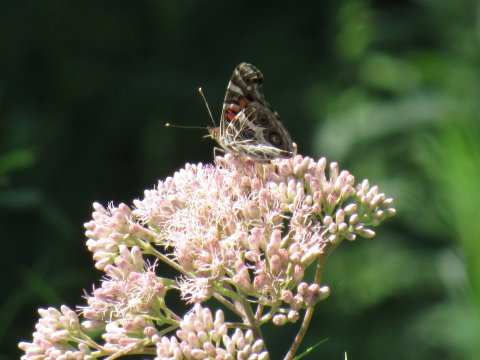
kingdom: Animalia
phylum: Arthropoda
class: Insecta
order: Lepidoptera
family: Nymphalidae
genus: Vanessa
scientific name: Vanessa virginiensis
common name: American Lady
